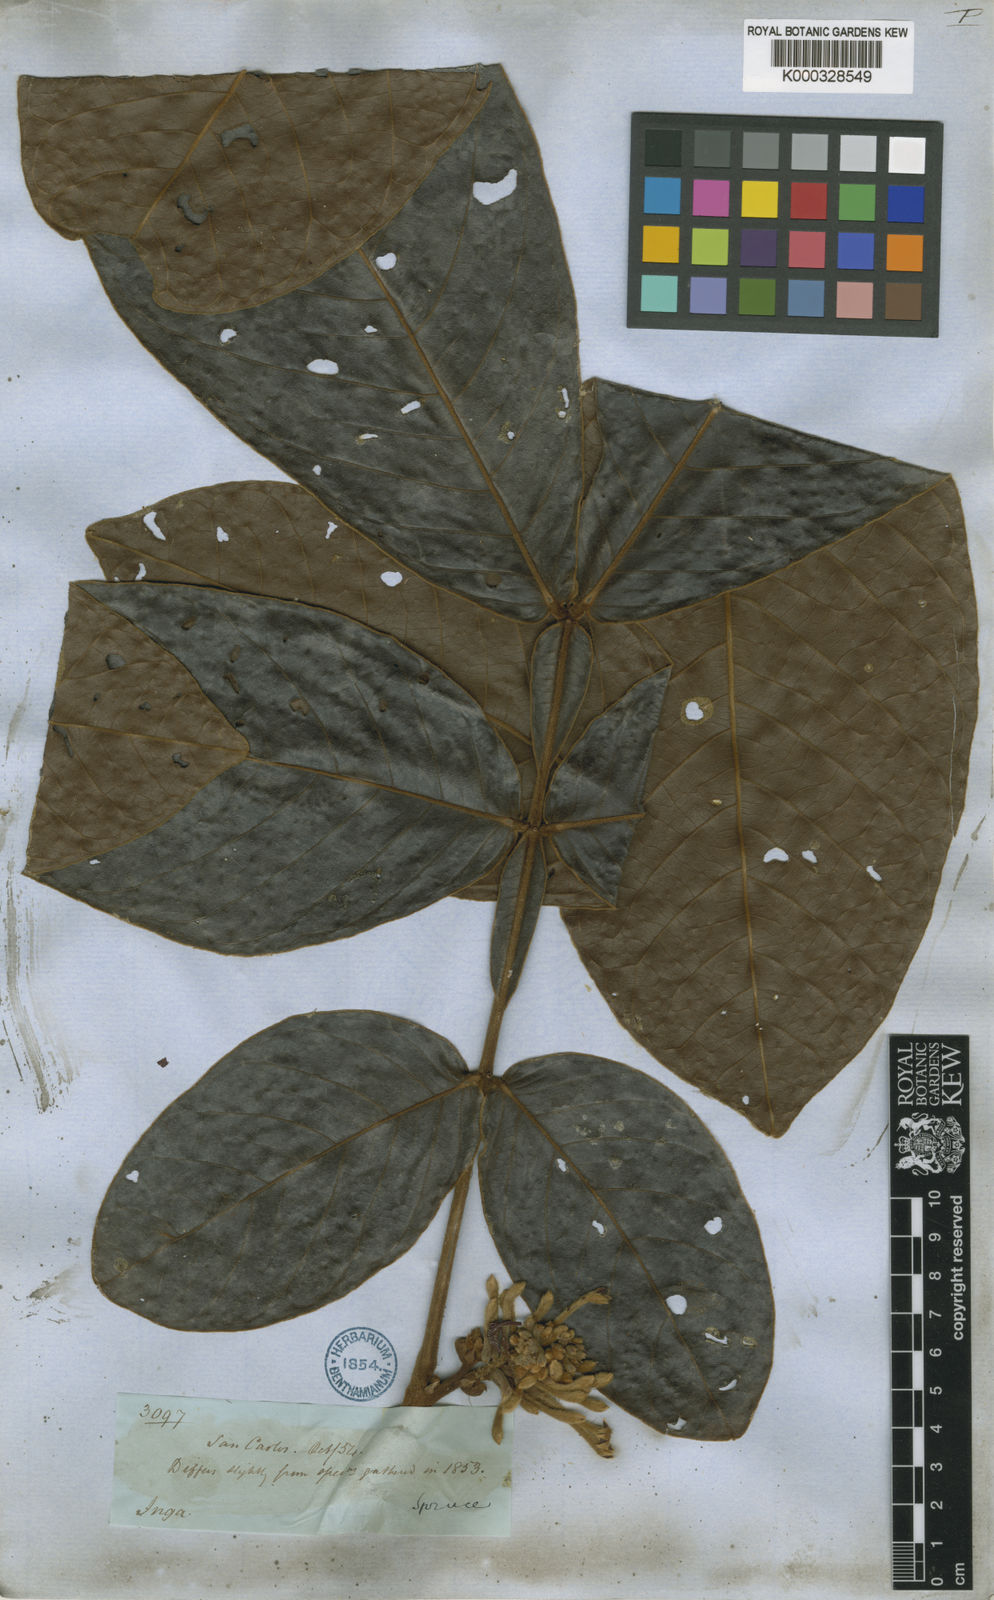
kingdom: Plantae
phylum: Tracheophyta
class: Magnoliopsida
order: Fabales
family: Fabaceae
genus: Inga
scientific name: Inga lomatophylla
